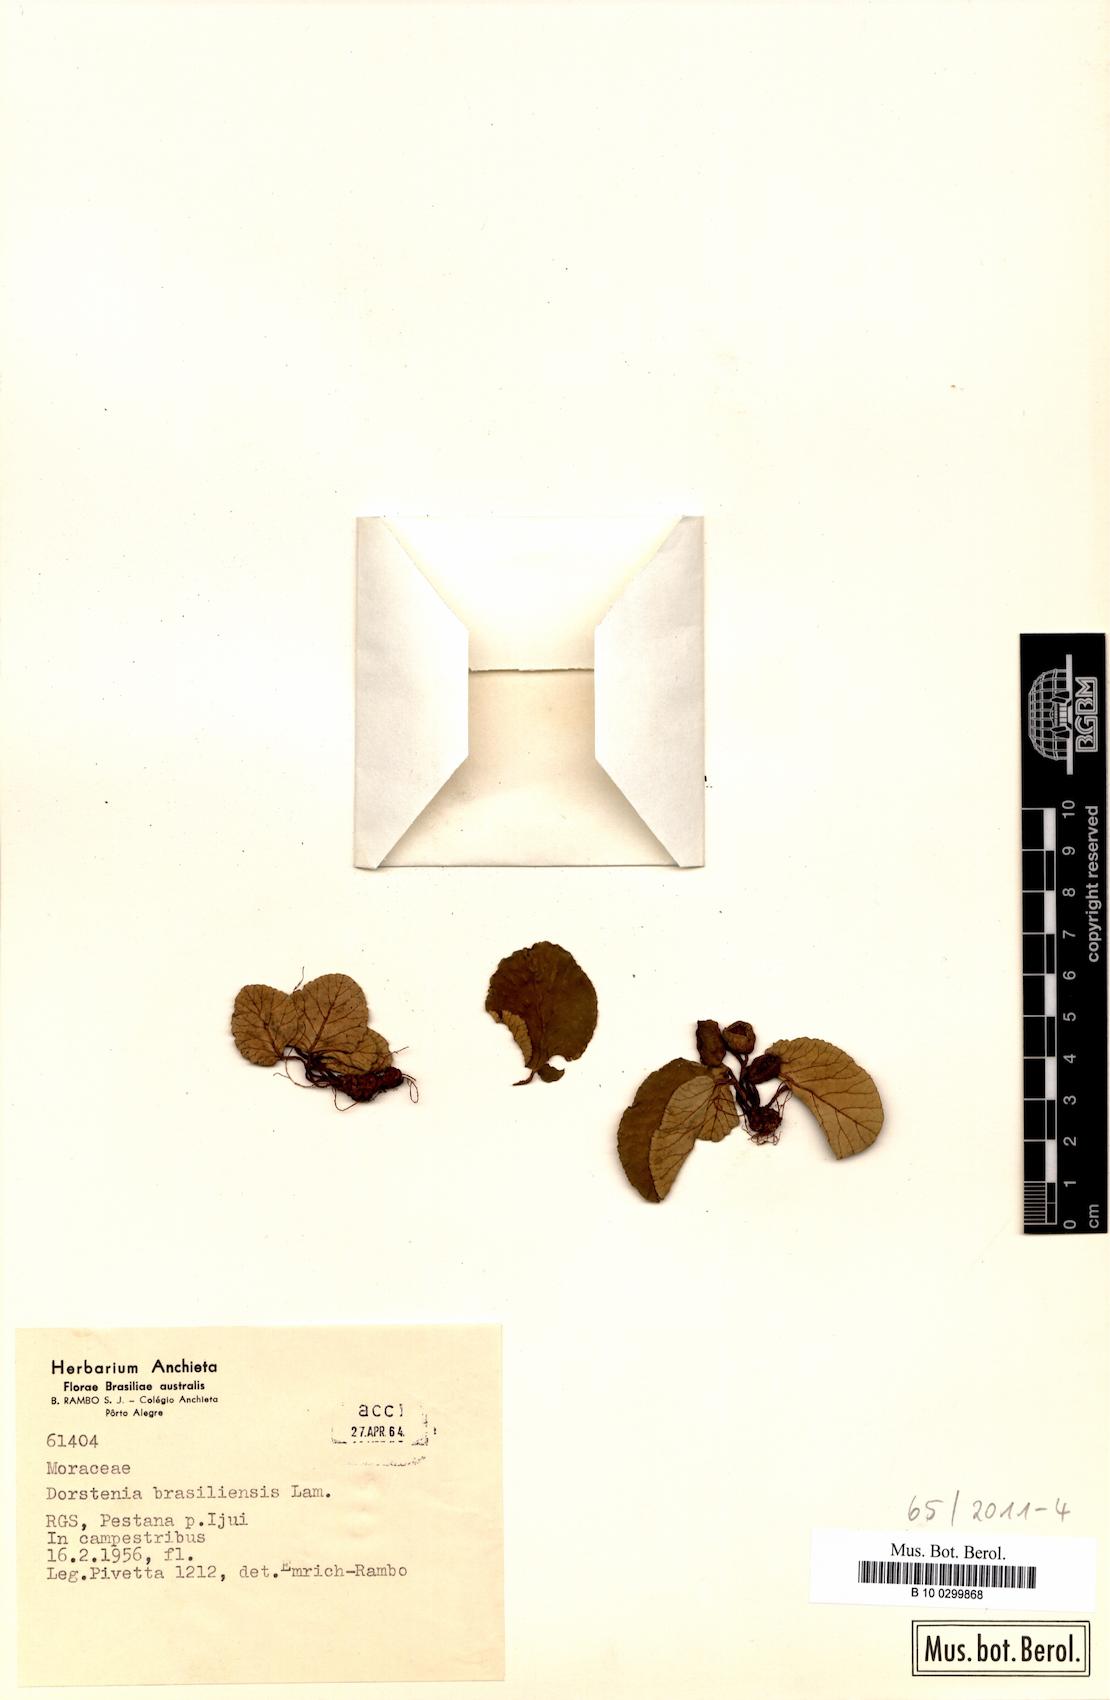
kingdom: Plantae
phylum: Tracheophyta
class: Magnoliopsida
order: Rosales
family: Moraceae
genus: Dorstenia
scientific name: Dorstenia brasiliensis
